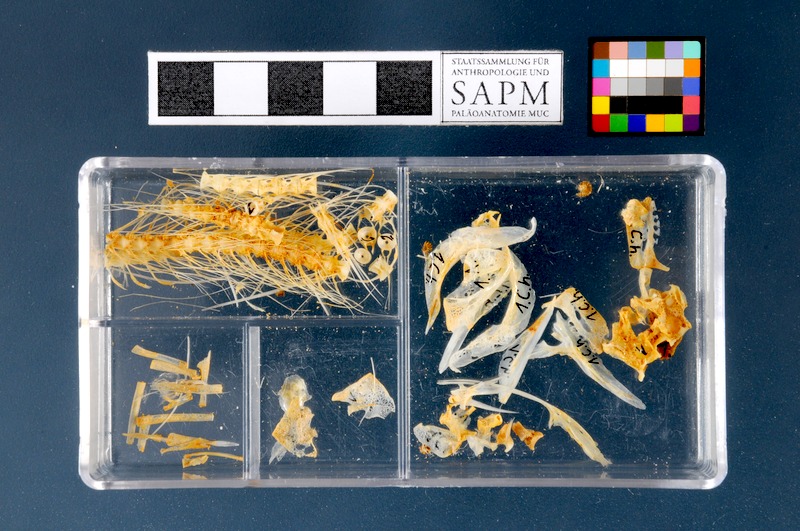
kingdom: Animalia
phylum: Chordata
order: Clupeiformes
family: Clupeidae
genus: Clupea
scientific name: Clupea harengus
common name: Herring
